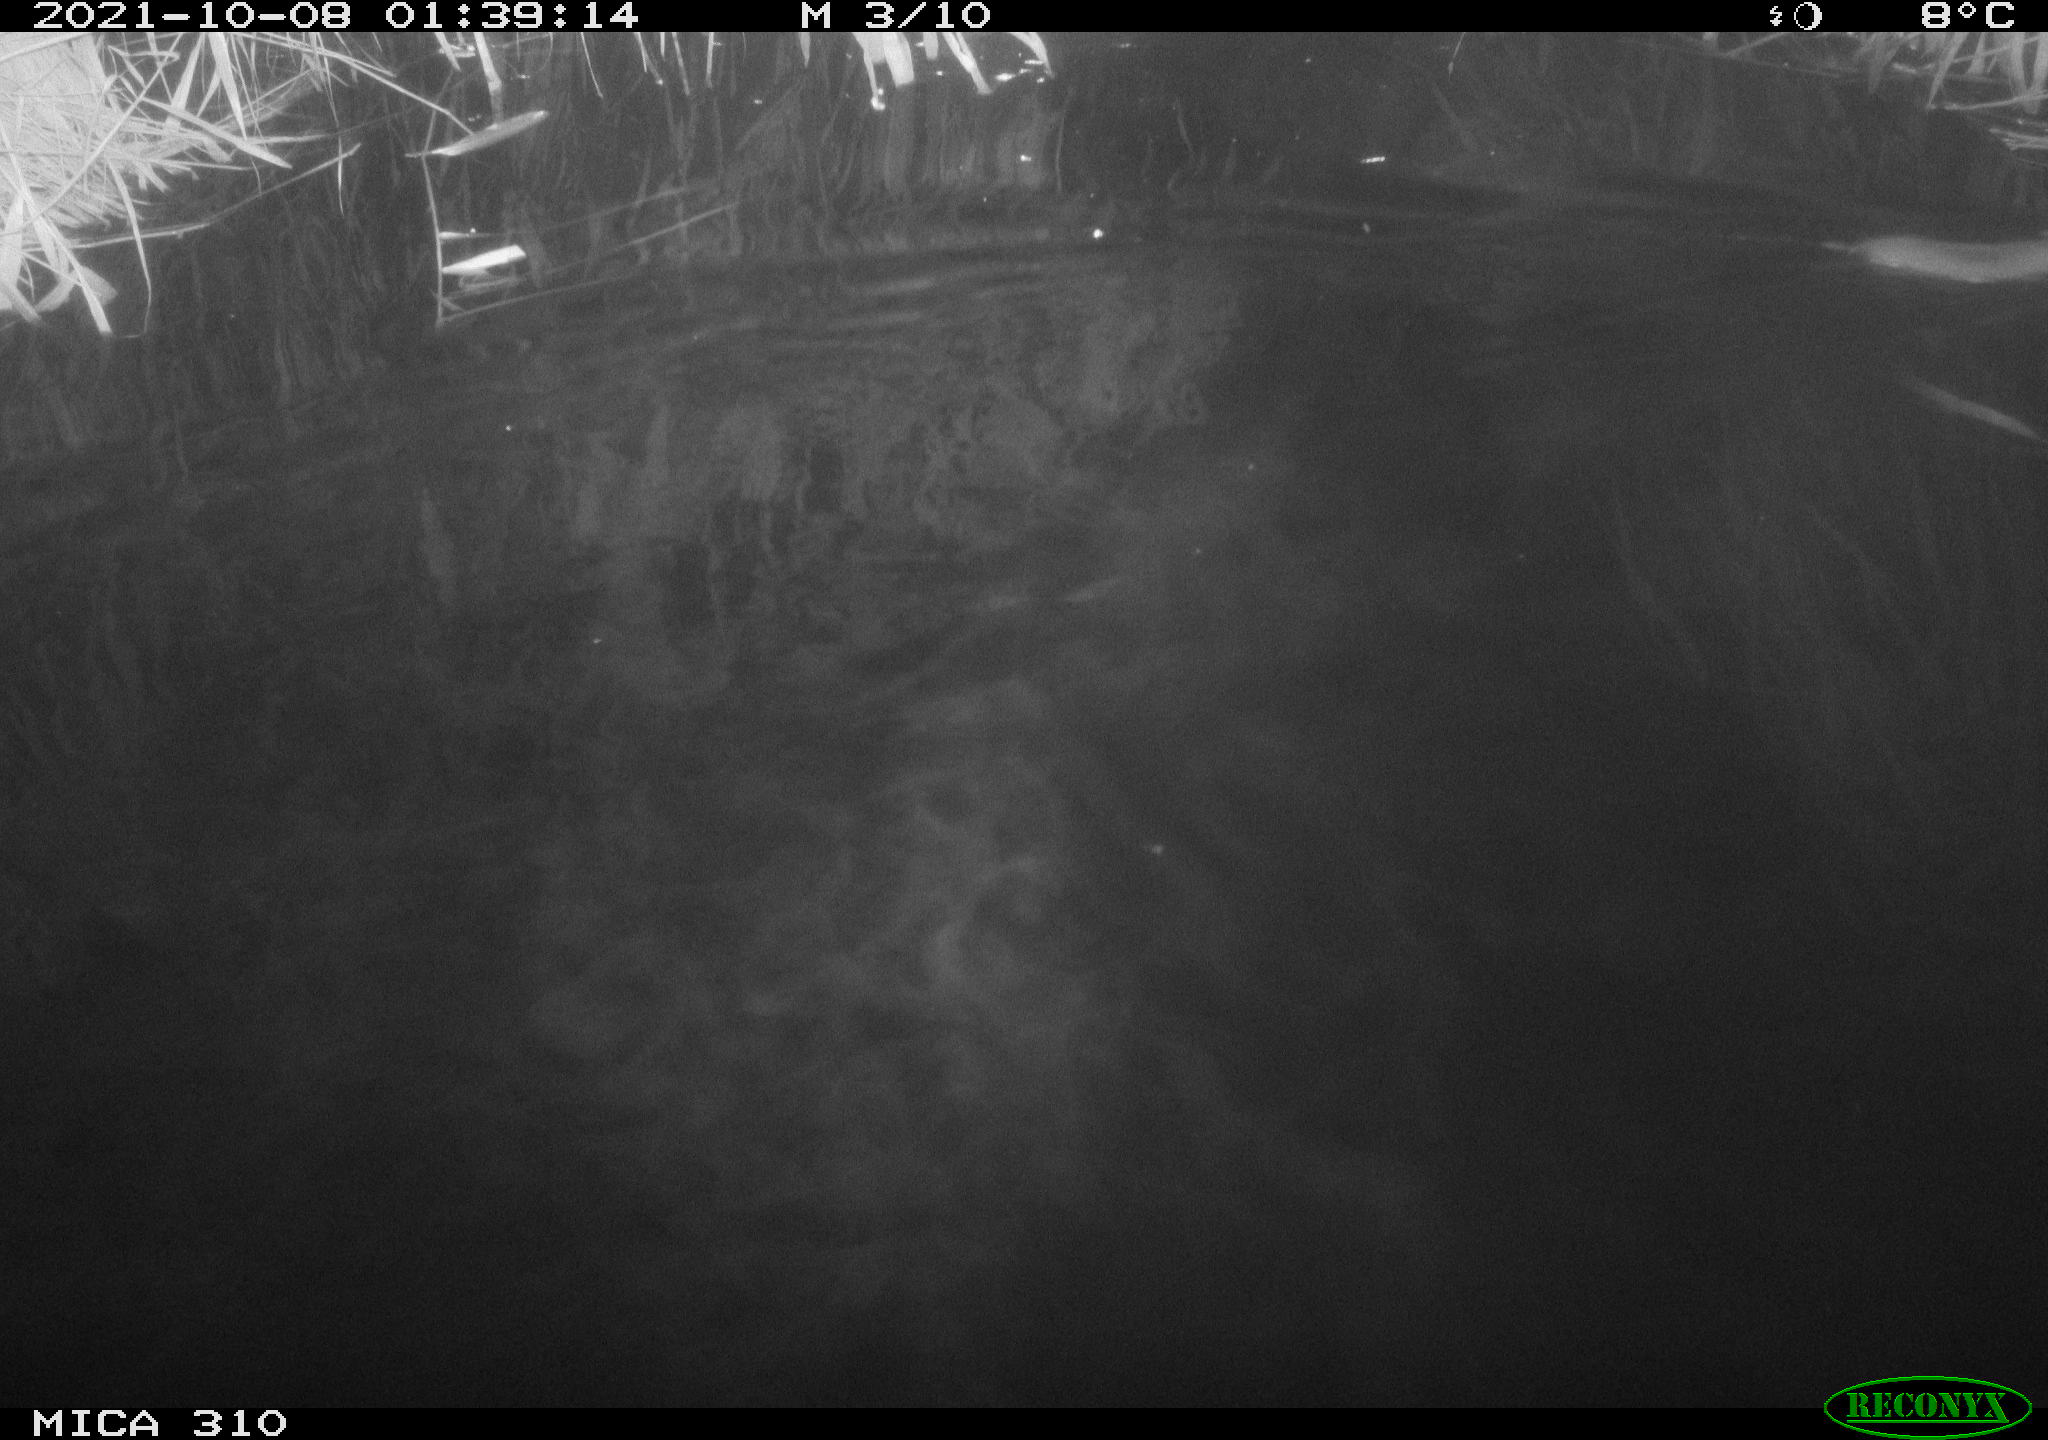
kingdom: Animalia
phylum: Chordata
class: Mammalia
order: Rodentia
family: Muridae
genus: Rattus
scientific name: Rattus norvegicus
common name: Brown rat
